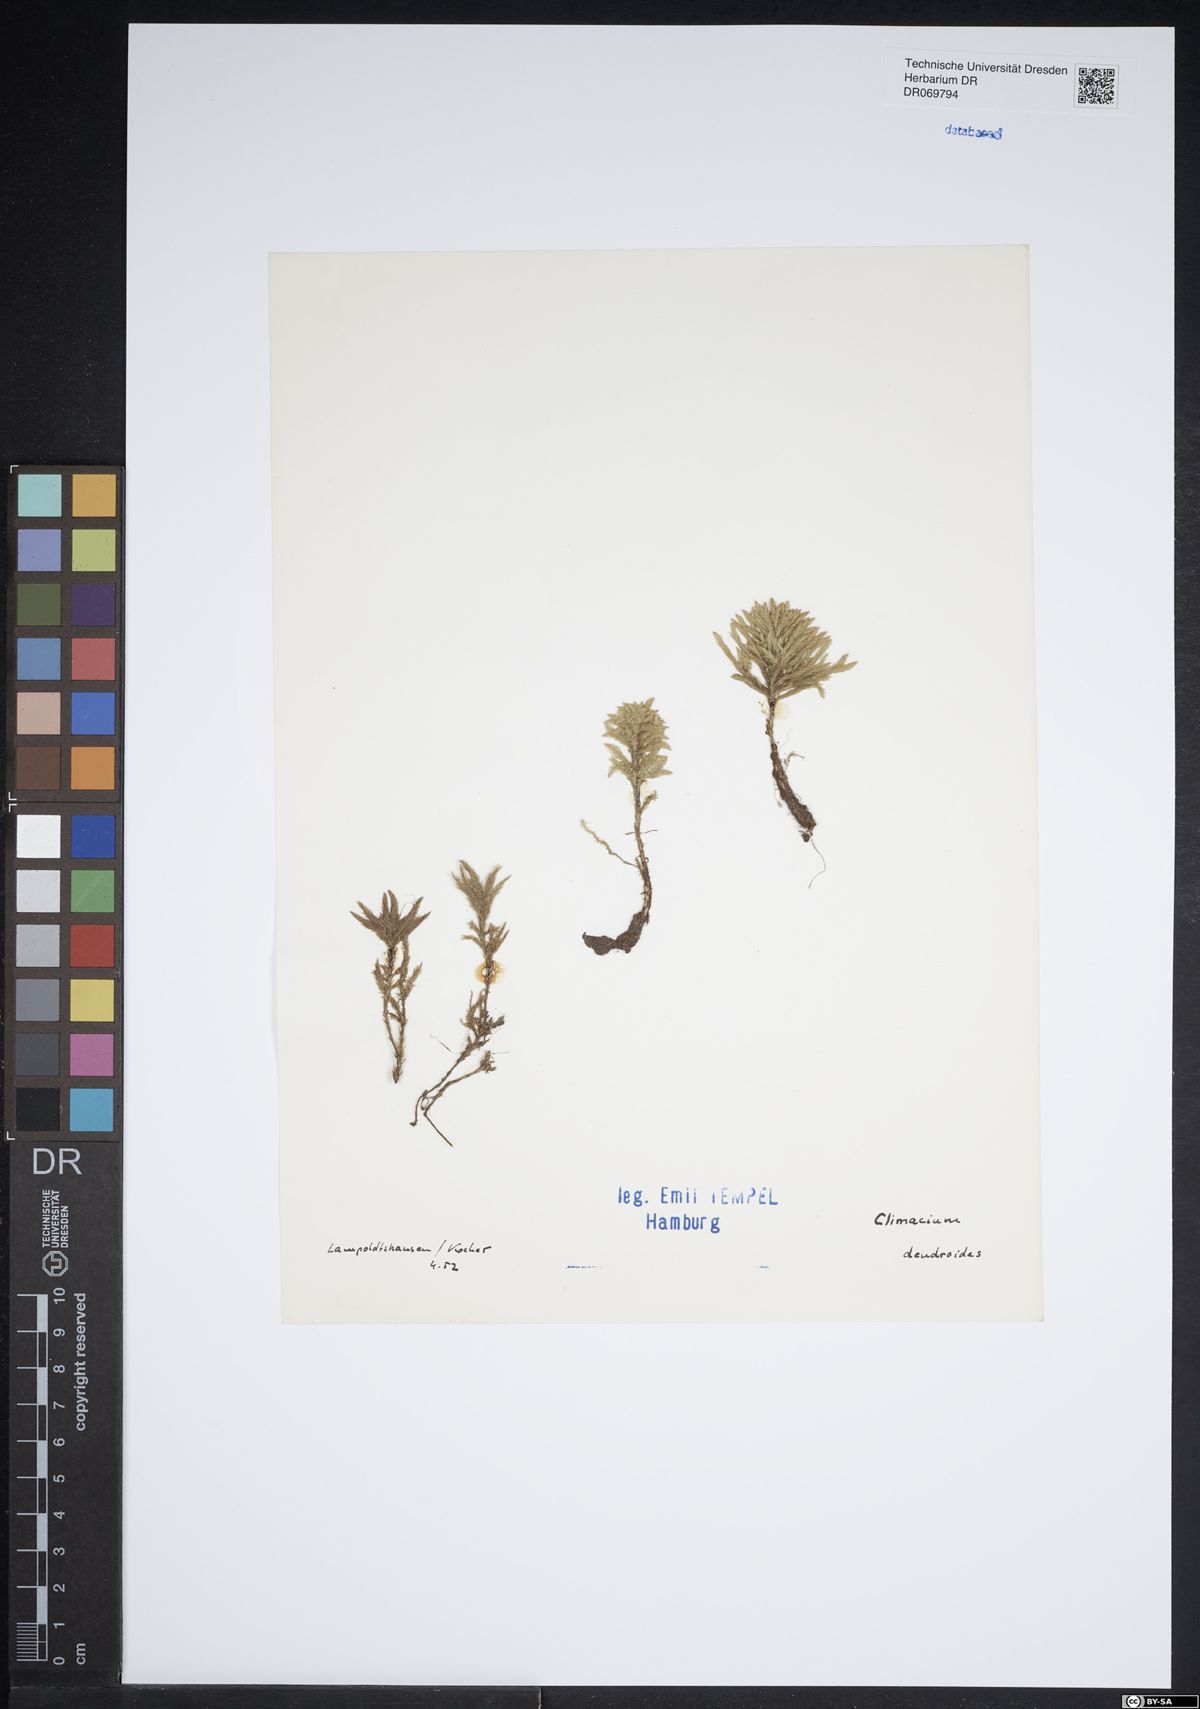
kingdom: Plantae
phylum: Bryophyta
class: Bryopsida
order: Hypnales
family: Climaciaceae
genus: Climacium
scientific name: Climacium dendroides
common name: Northern tree moss
